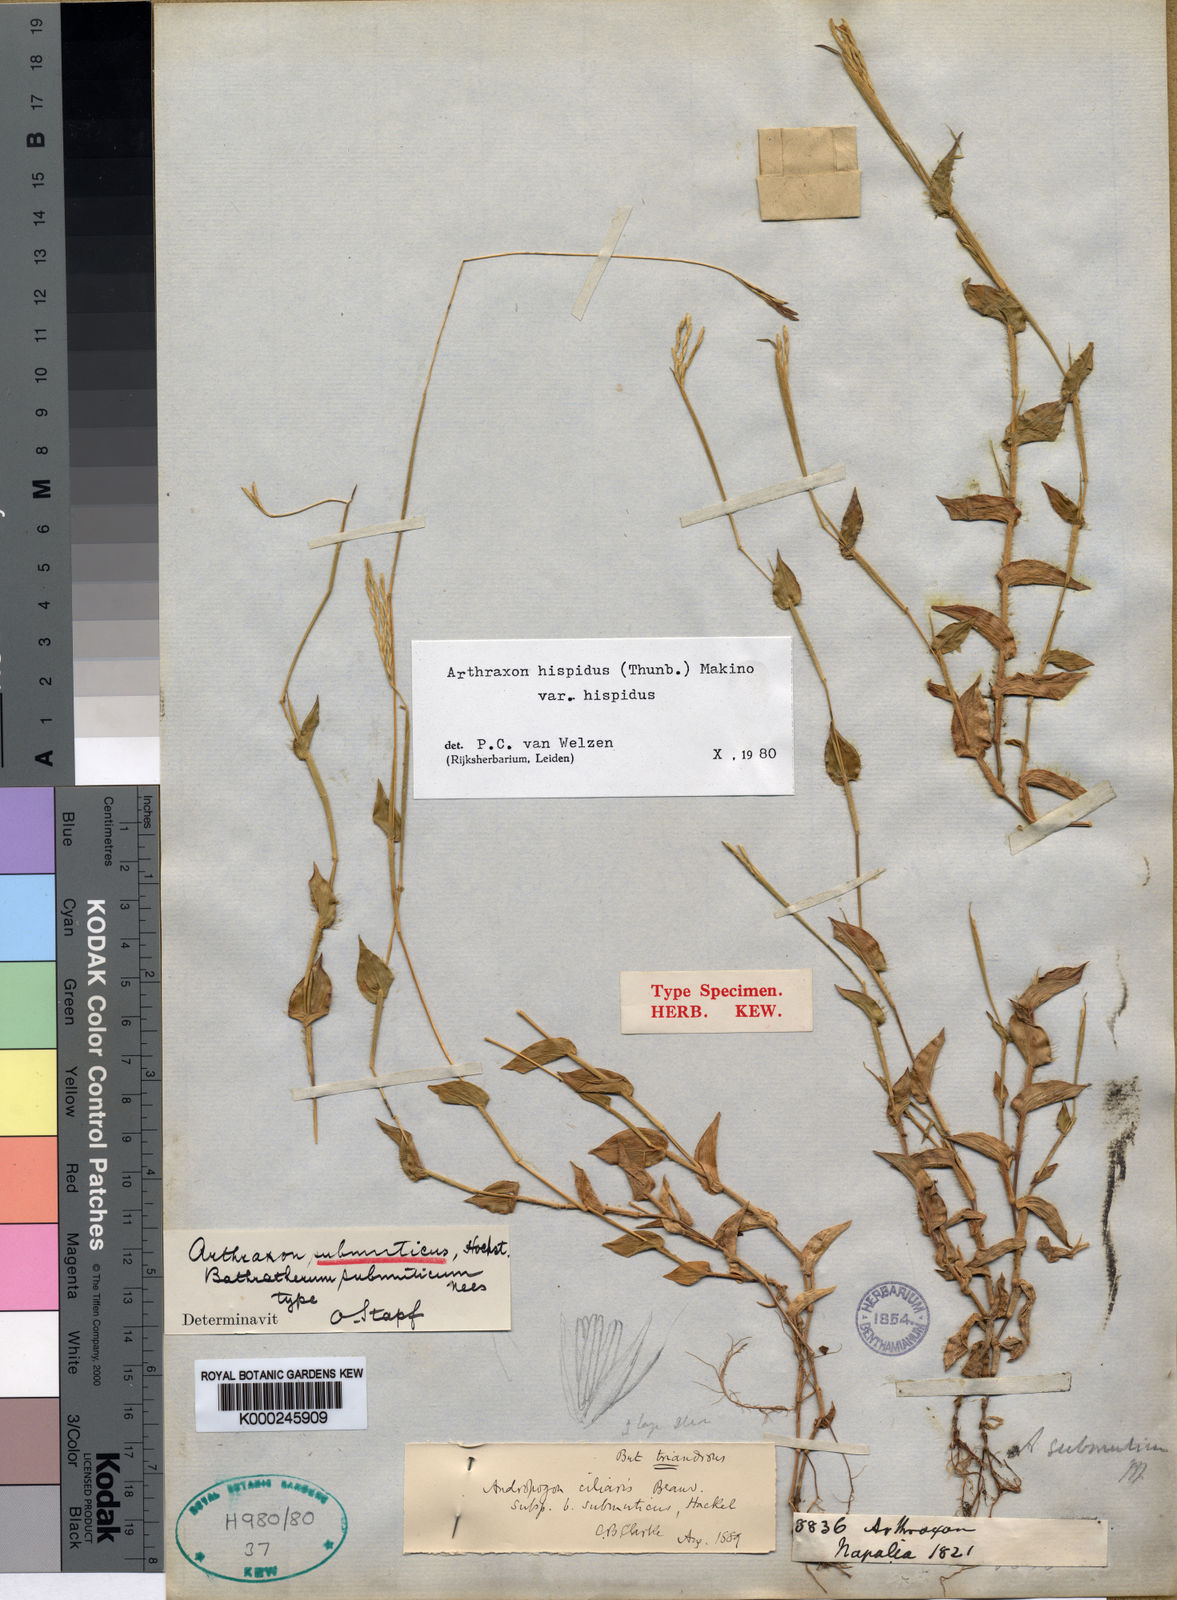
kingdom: Plantae
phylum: Tracheophyta
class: Liliopsida
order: Poales
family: Poaceae
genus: Arthraxon
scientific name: Arthraxon submuticus
